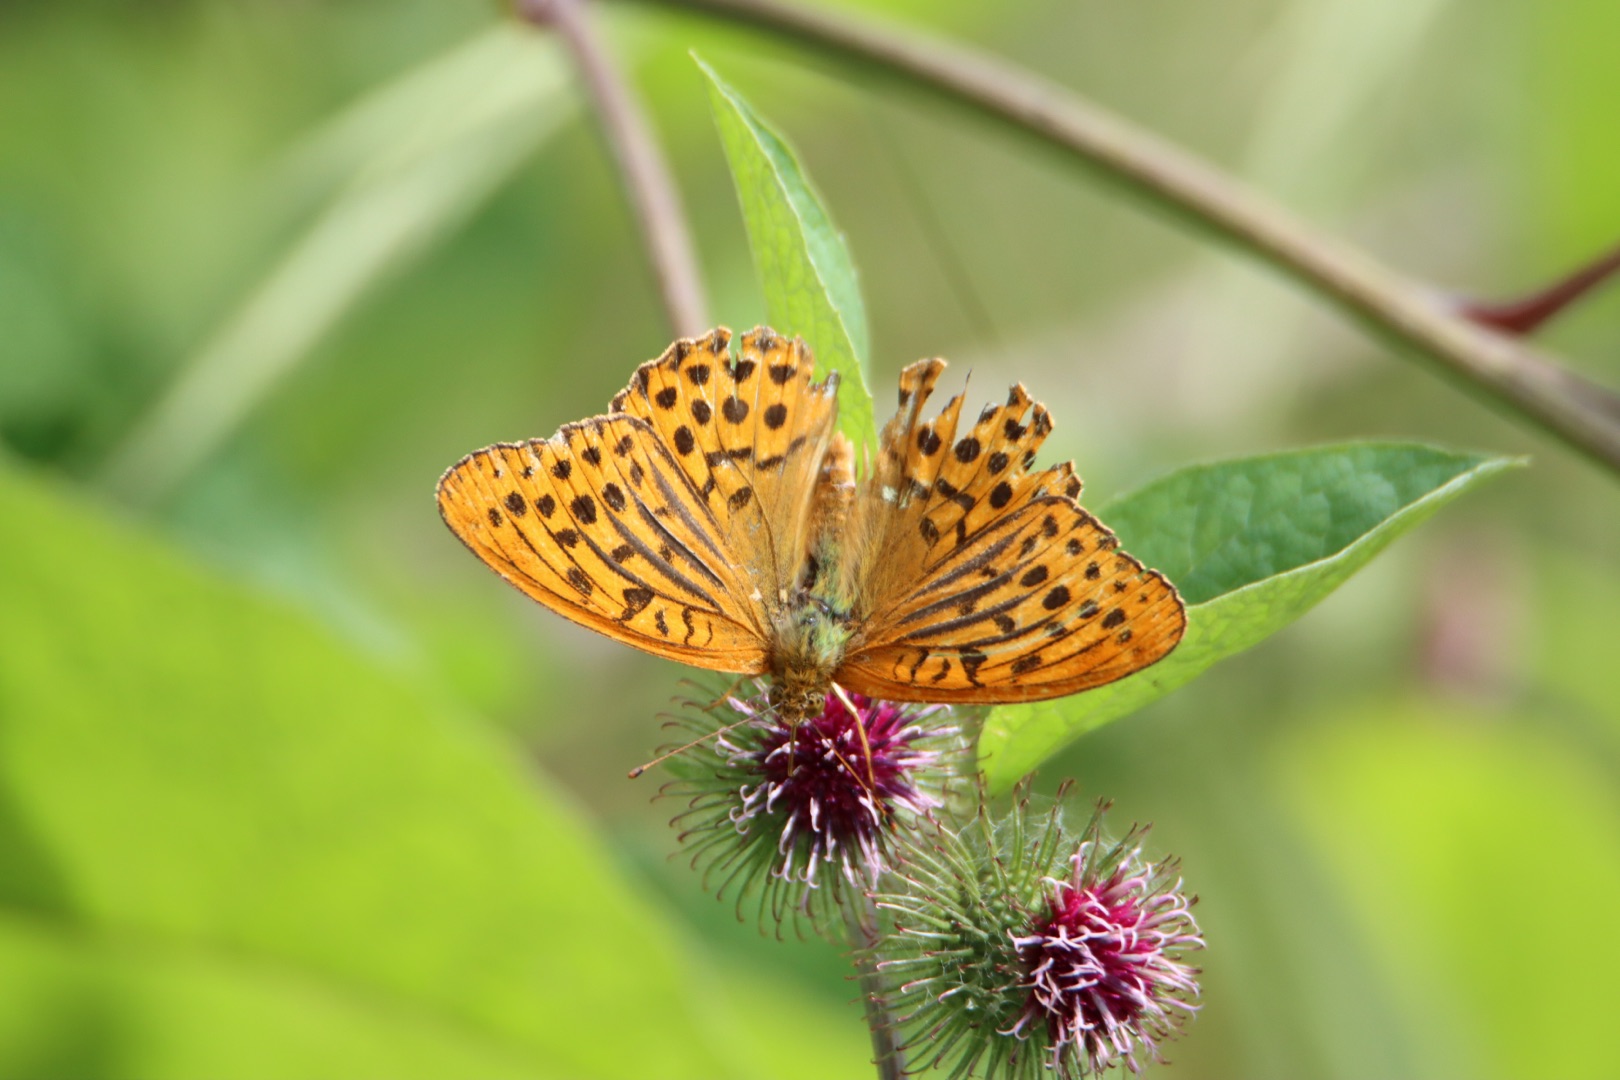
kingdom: Animalia
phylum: Arthropoda
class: Insecta
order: Lepidoptera
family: Nymphalidae
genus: Argynnis
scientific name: Argynnis paphia
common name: Kejserkåbe
